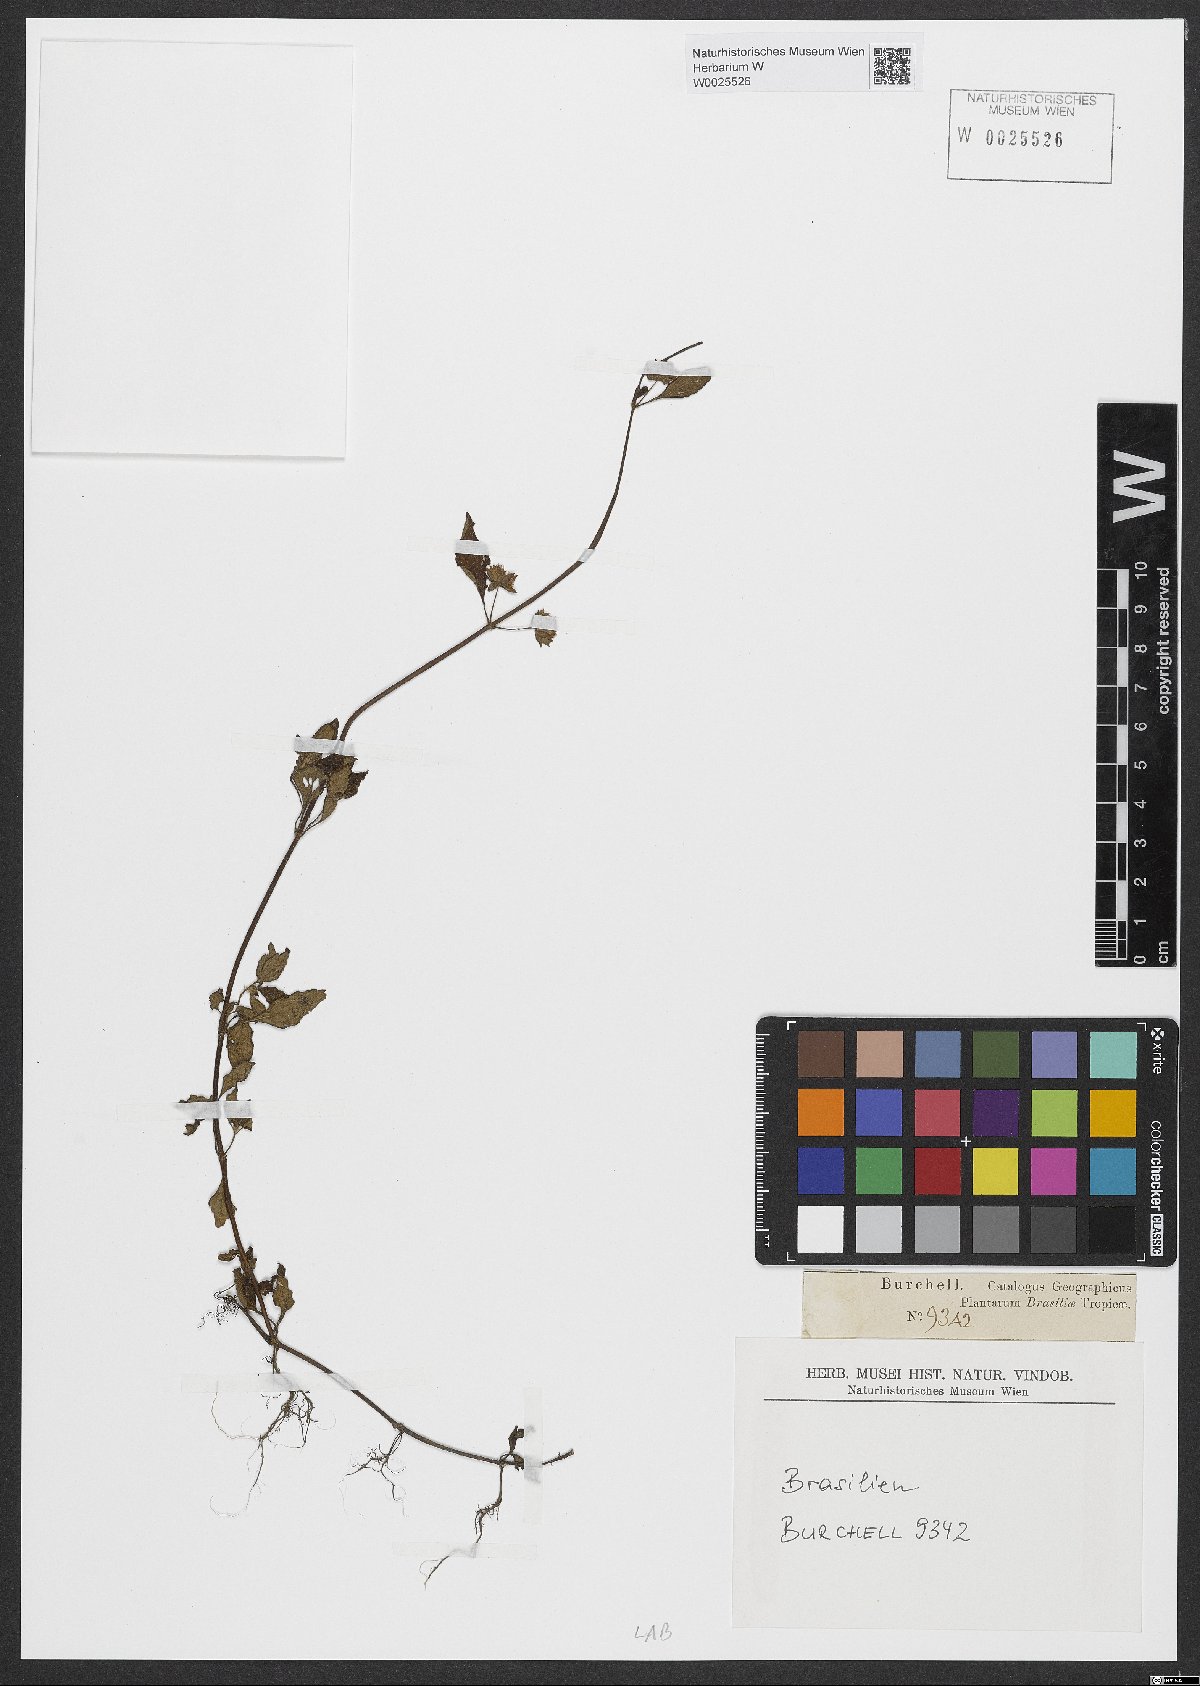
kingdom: Plantae
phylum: Tracheophyta
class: Magnoliopsida
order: Lamiales
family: Lamiaceae
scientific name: Lamiaceae
